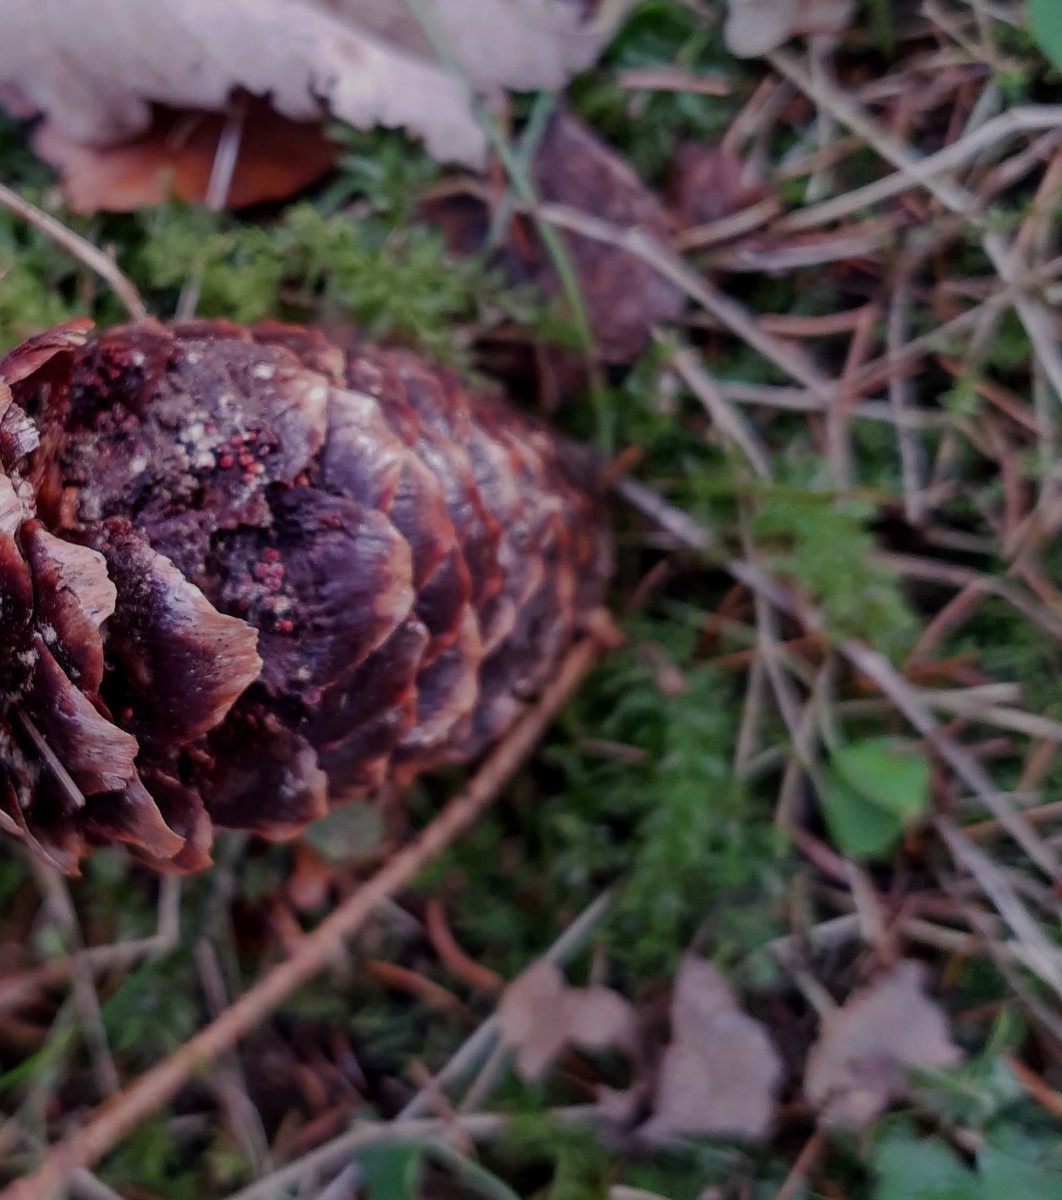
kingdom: Fungi
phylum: Basidiomycota
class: Pucciniomycetes
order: Pucciniales
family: Pucciniastraceae
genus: Thekopsora
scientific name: Thekopsora areolata
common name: grankogle-nålerust
